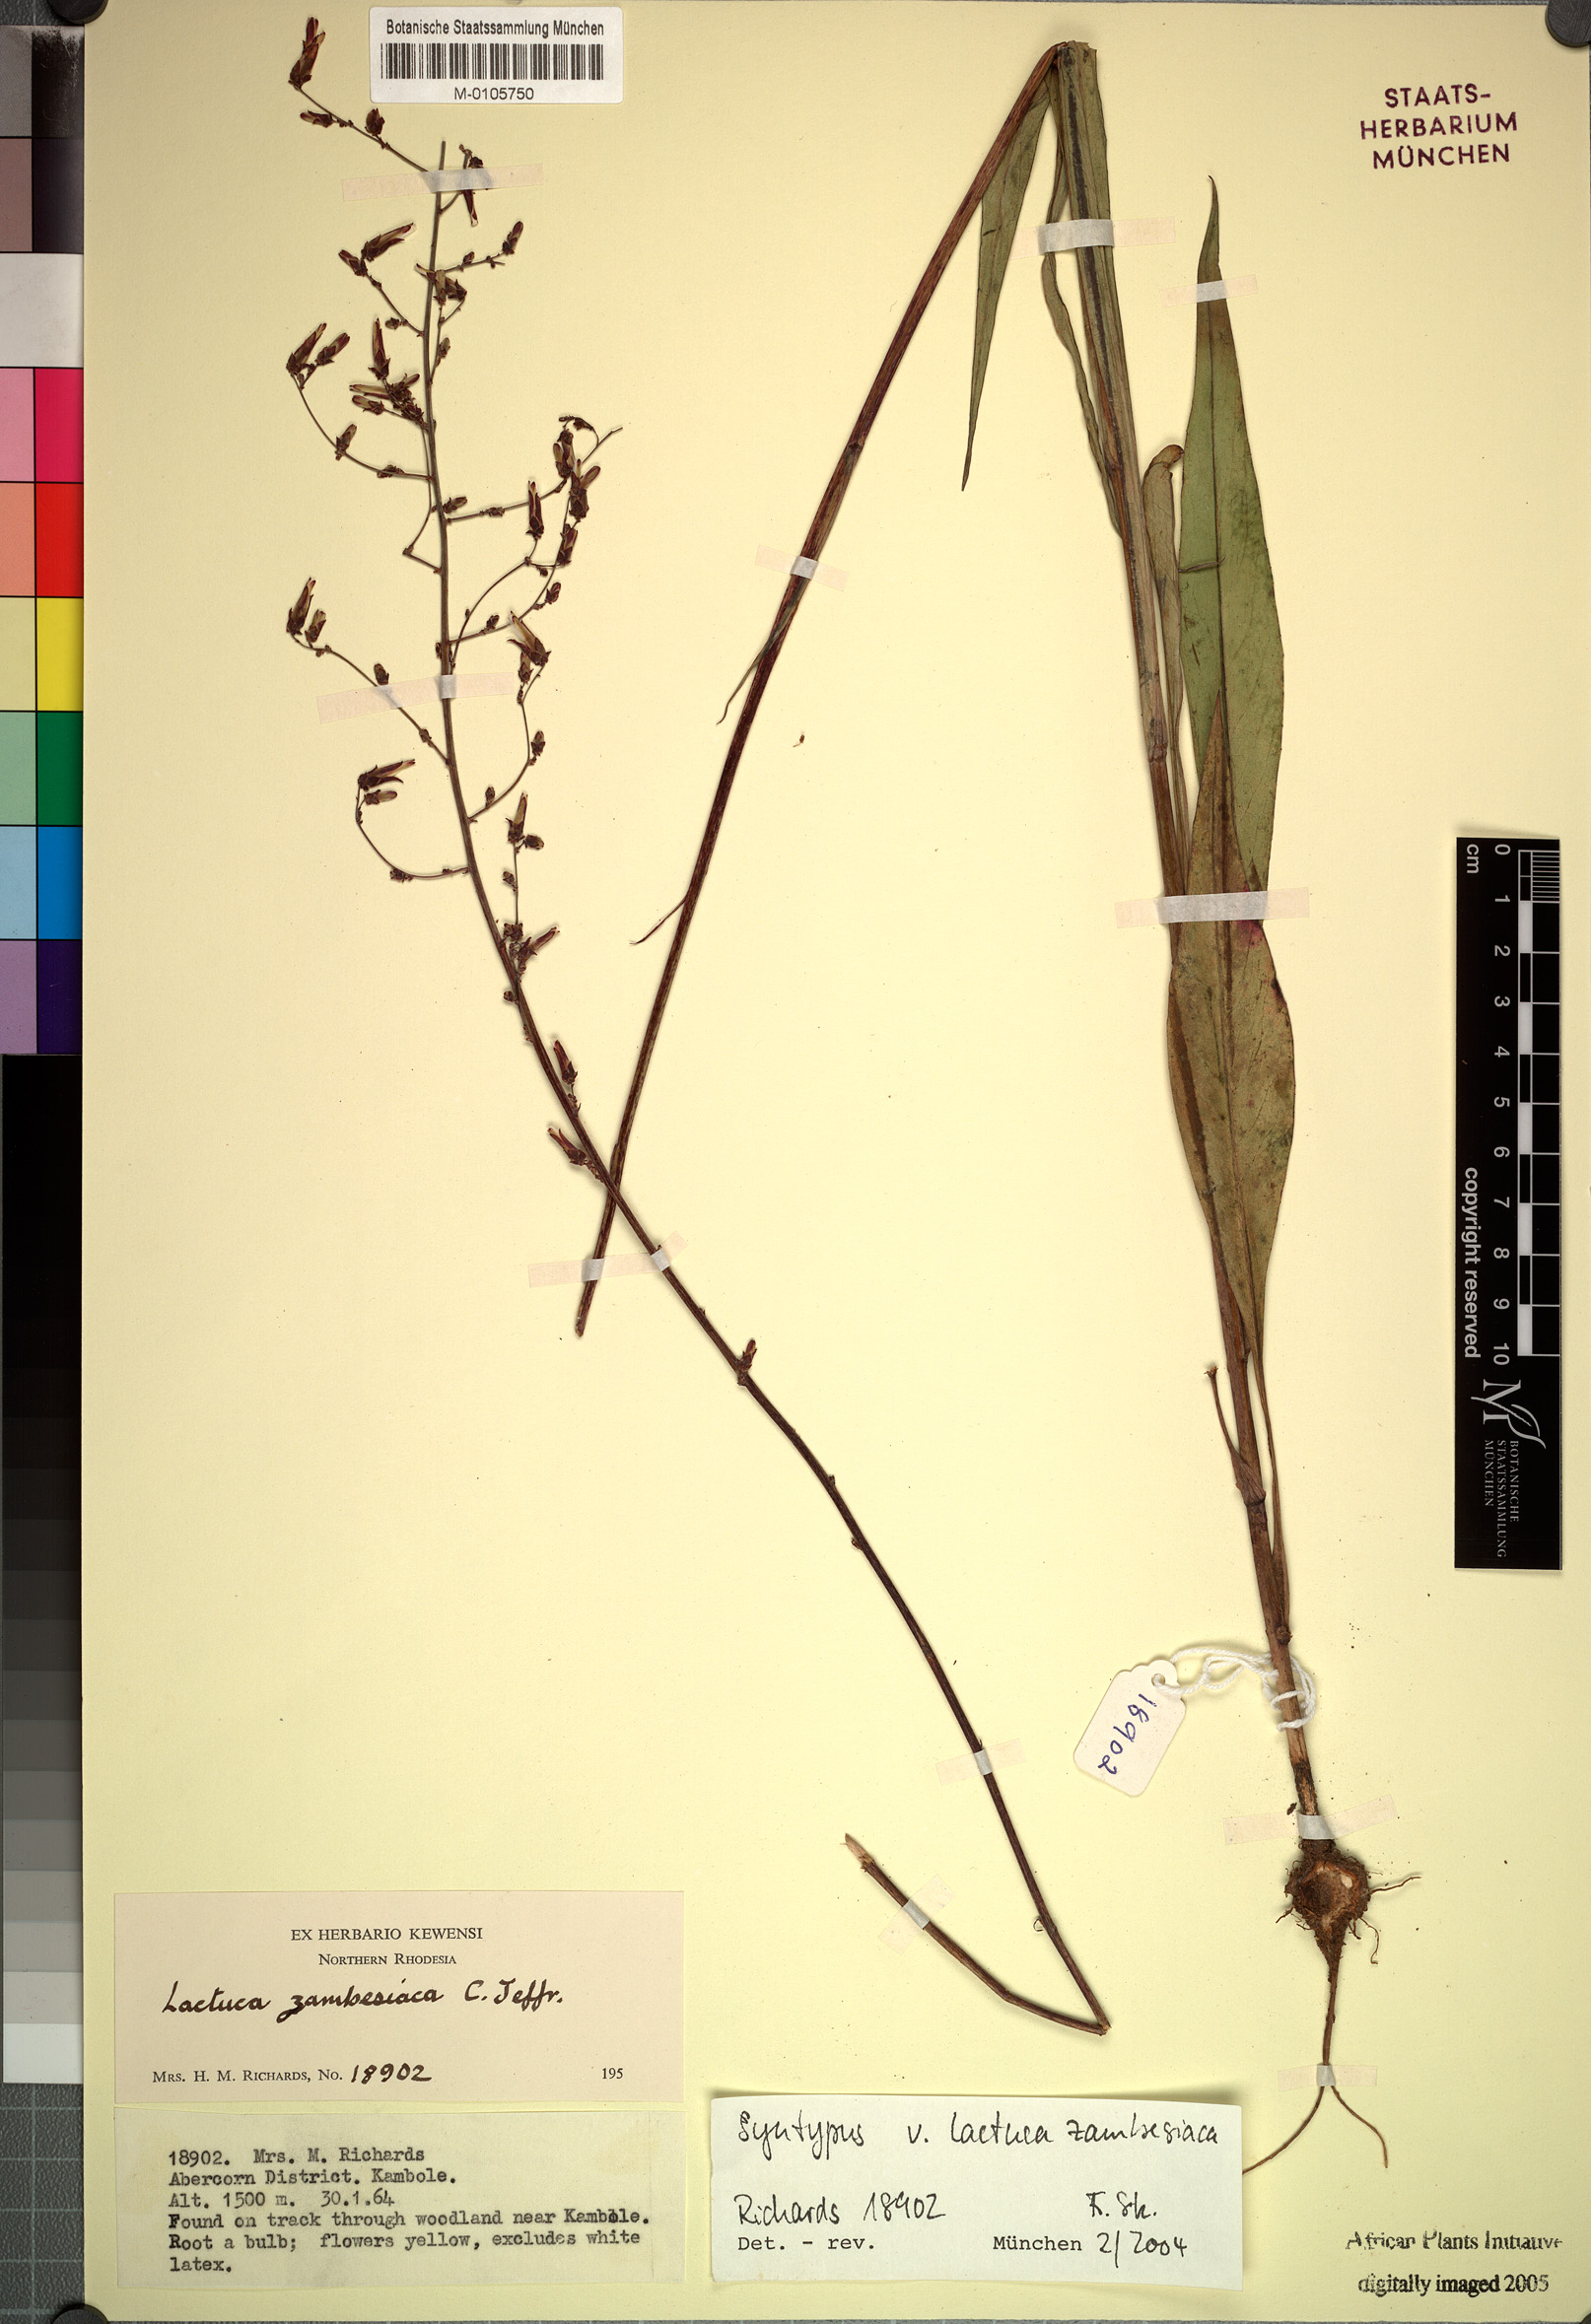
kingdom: Plantae
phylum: Tracheophyta
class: Magnoliopsida
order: Asterales
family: Asteraceae
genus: Lactuca
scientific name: Lactuca zambeziaca
